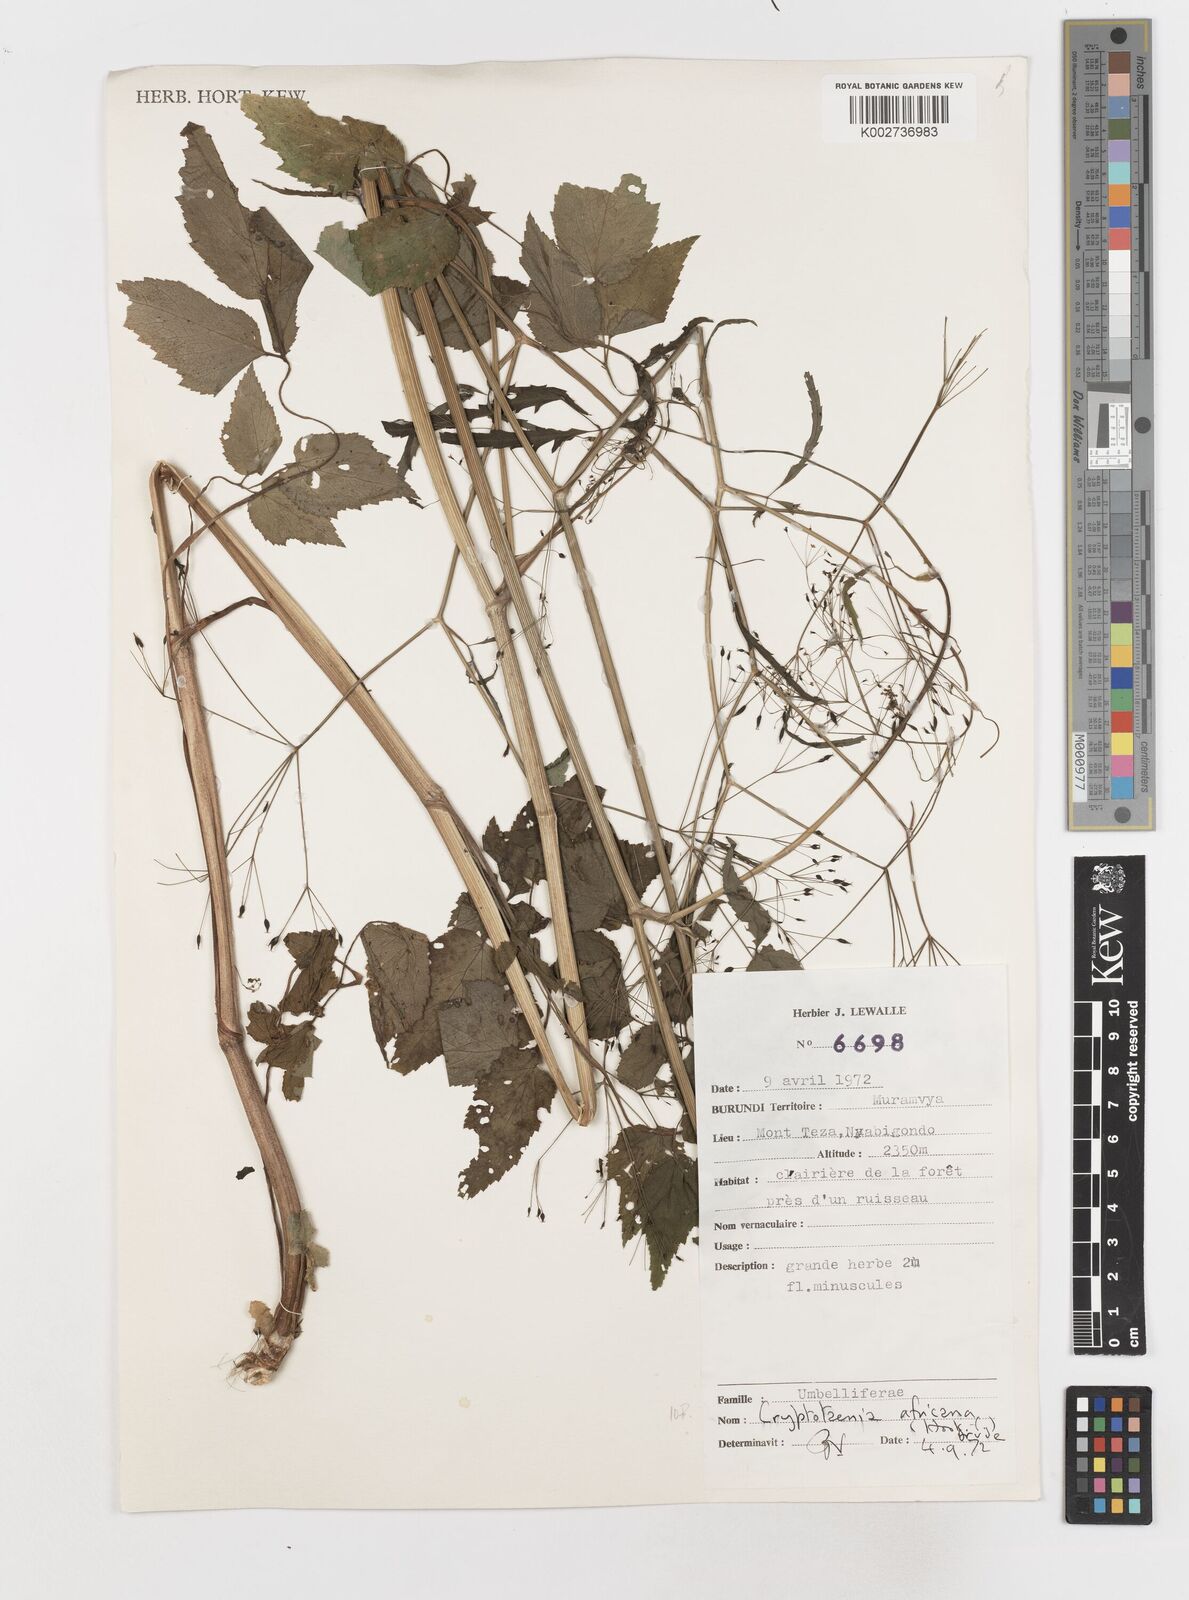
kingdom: Plantae
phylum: Tracheophyta
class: Magnoliopsida
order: Apiales
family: Apiaceae
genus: Cryptotaenia
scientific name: Cryptotaenia africana
